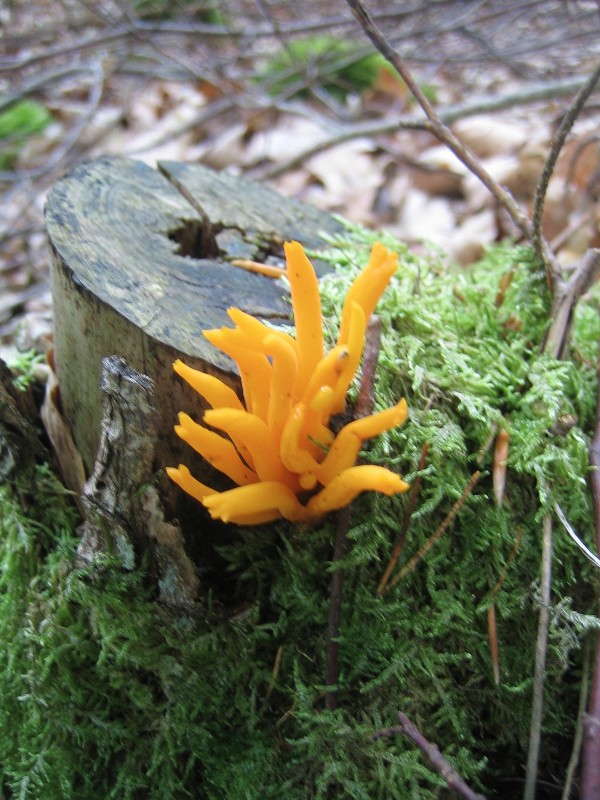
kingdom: Fungi
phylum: Basidiomycota
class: Dacrymycetes
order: Dacrymycetales
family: Dacrymycetaceae
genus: Calocera
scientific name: Calocera viscosa
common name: almindelig guldgaffel
